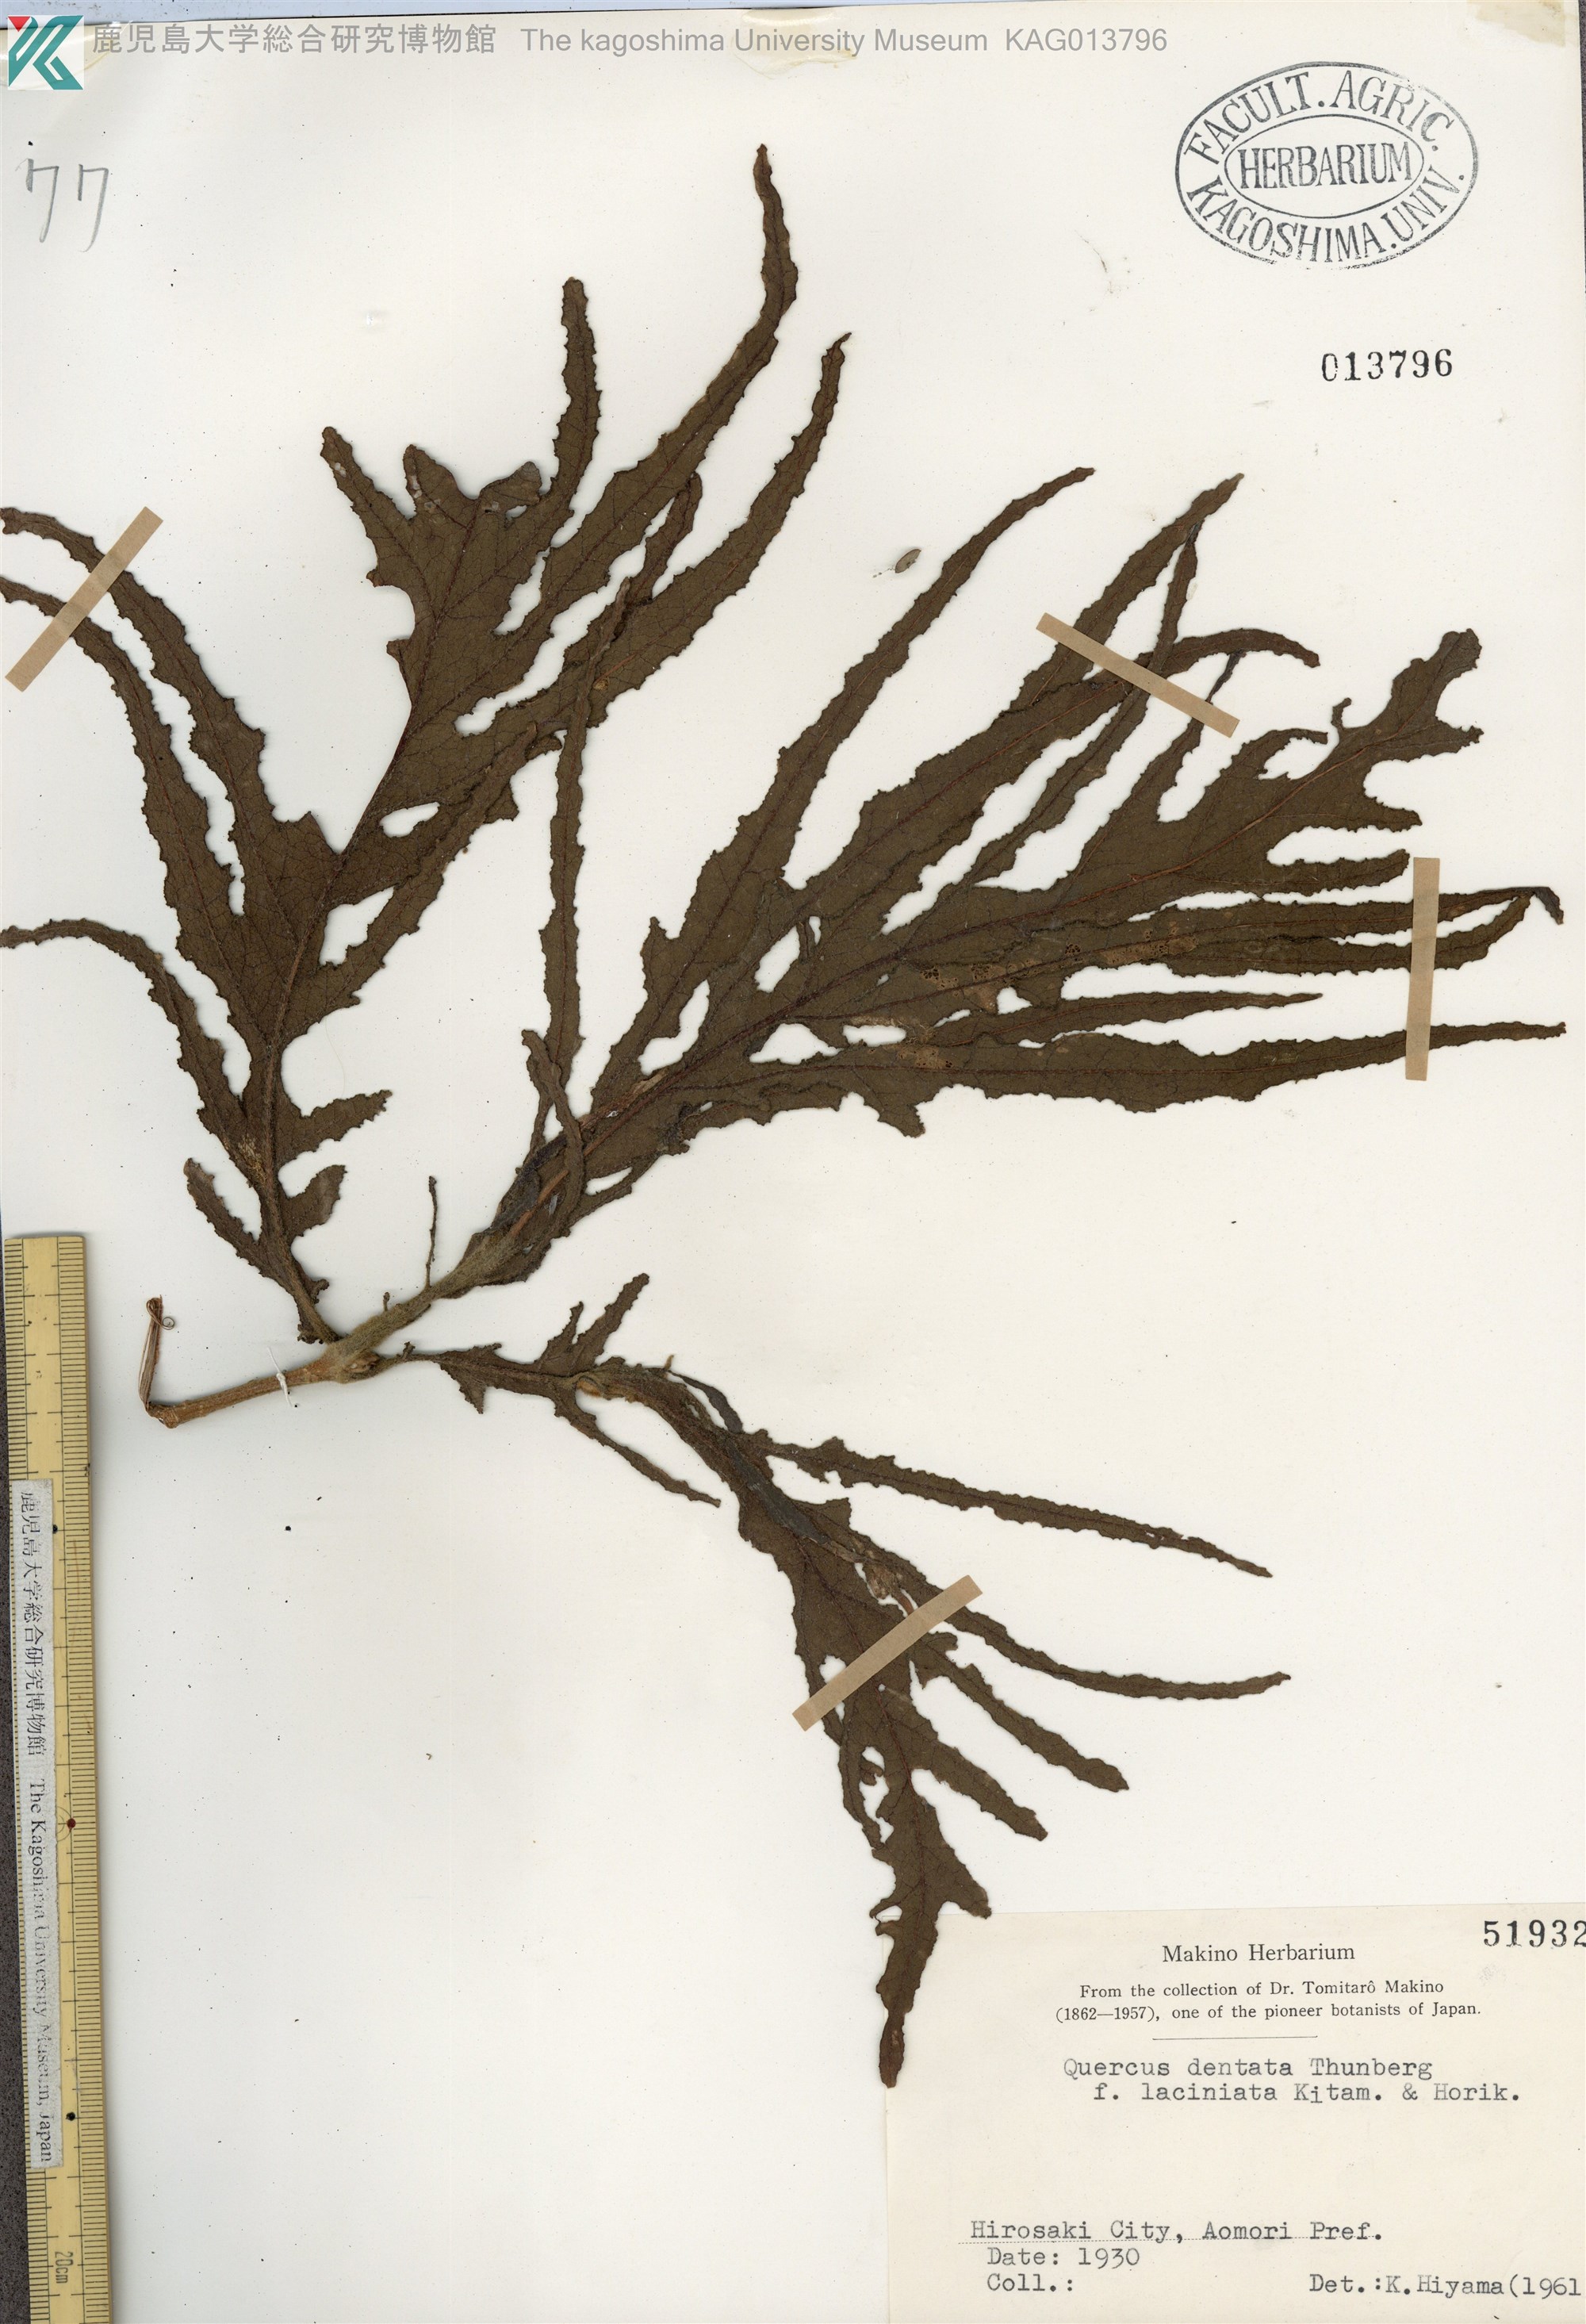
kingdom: Plantae
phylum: Tracheophyta
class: Magnoliopsida
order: Fagales
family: Fagaceae
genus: Quercus
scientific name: Quercus dentata
